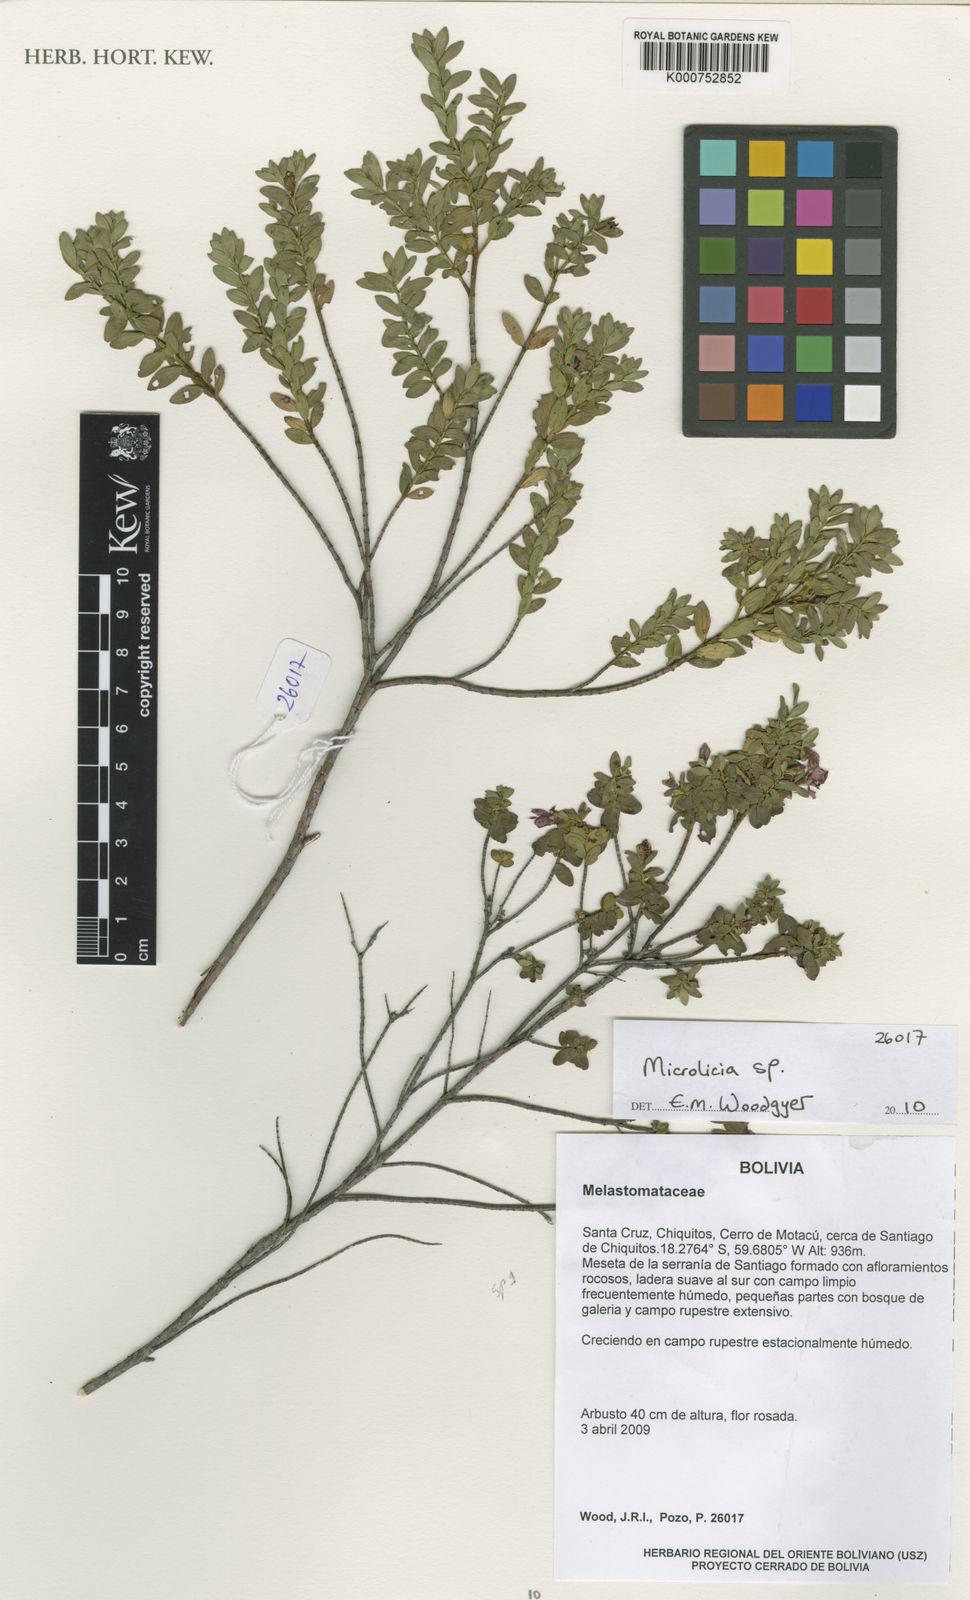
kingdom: Plantae
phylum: Tracheophyta
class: Magnoliopsida
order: Myrtales
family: Melastomataceae
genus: Microlicia
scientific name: Microlicia
